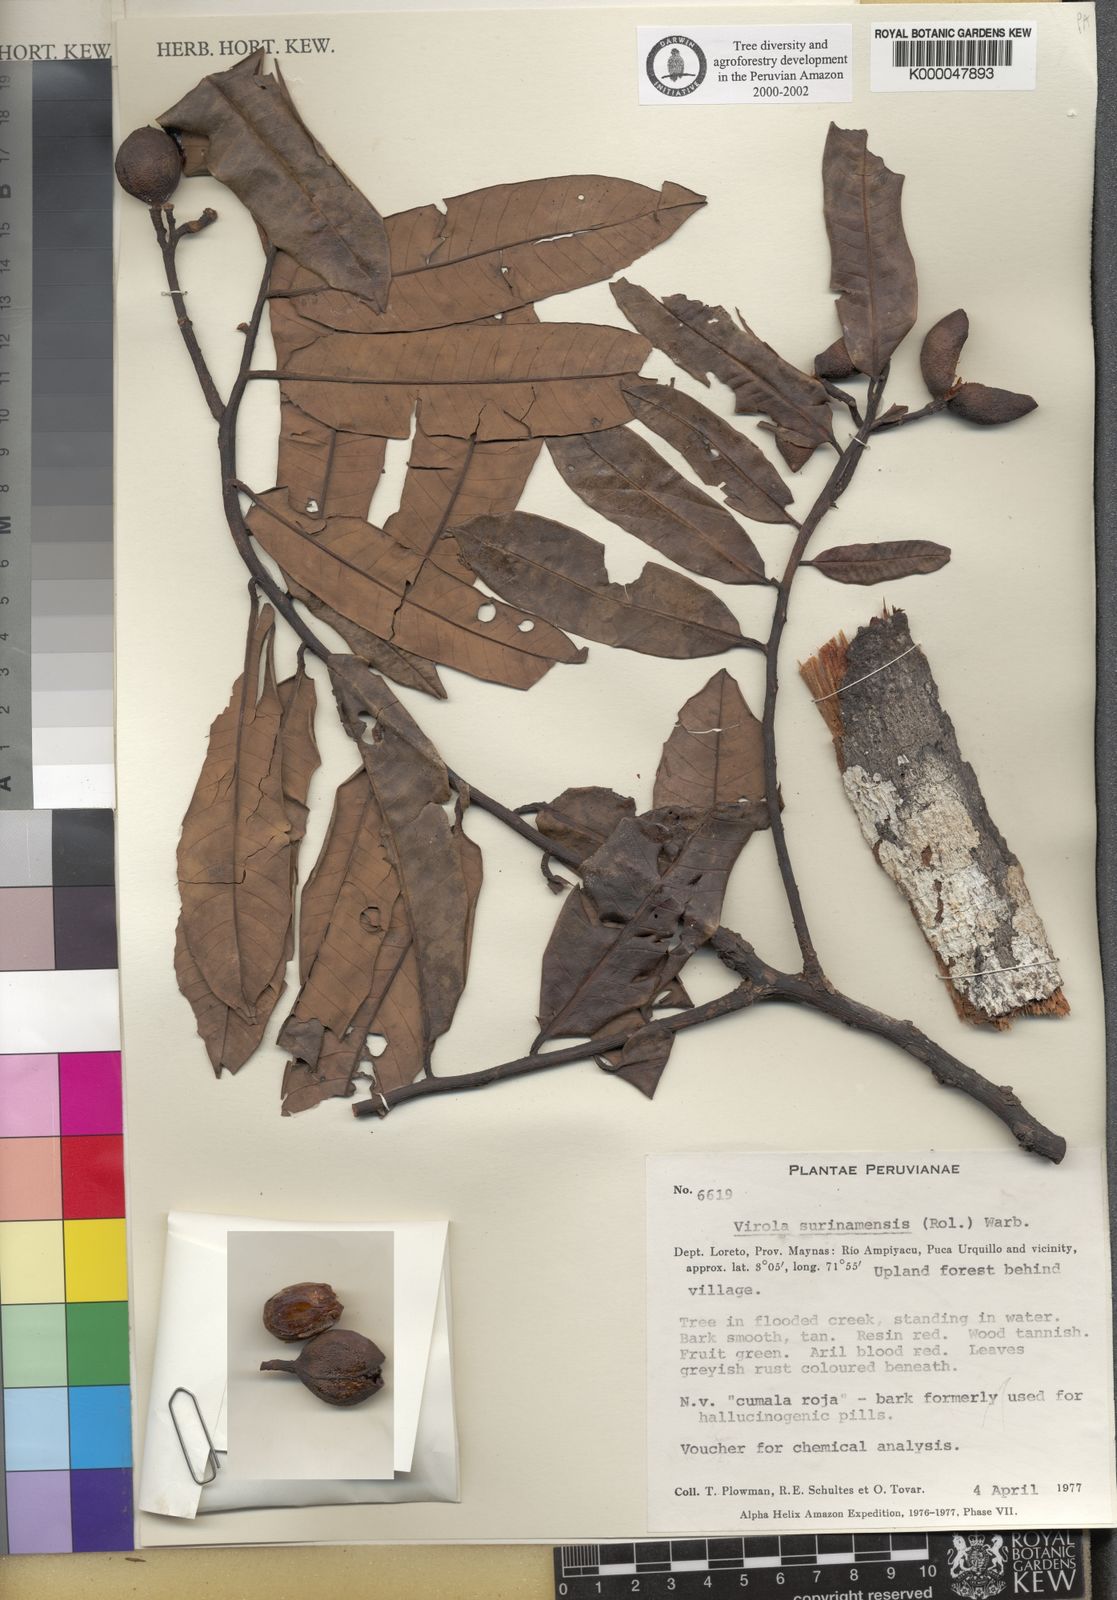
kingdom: Plantae
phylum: Tracheophyta
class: Magnoliopsida
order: Magnoliales
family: Myristicaceae
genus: Virola
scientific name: Virola surinamensis
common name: Baboonwood
